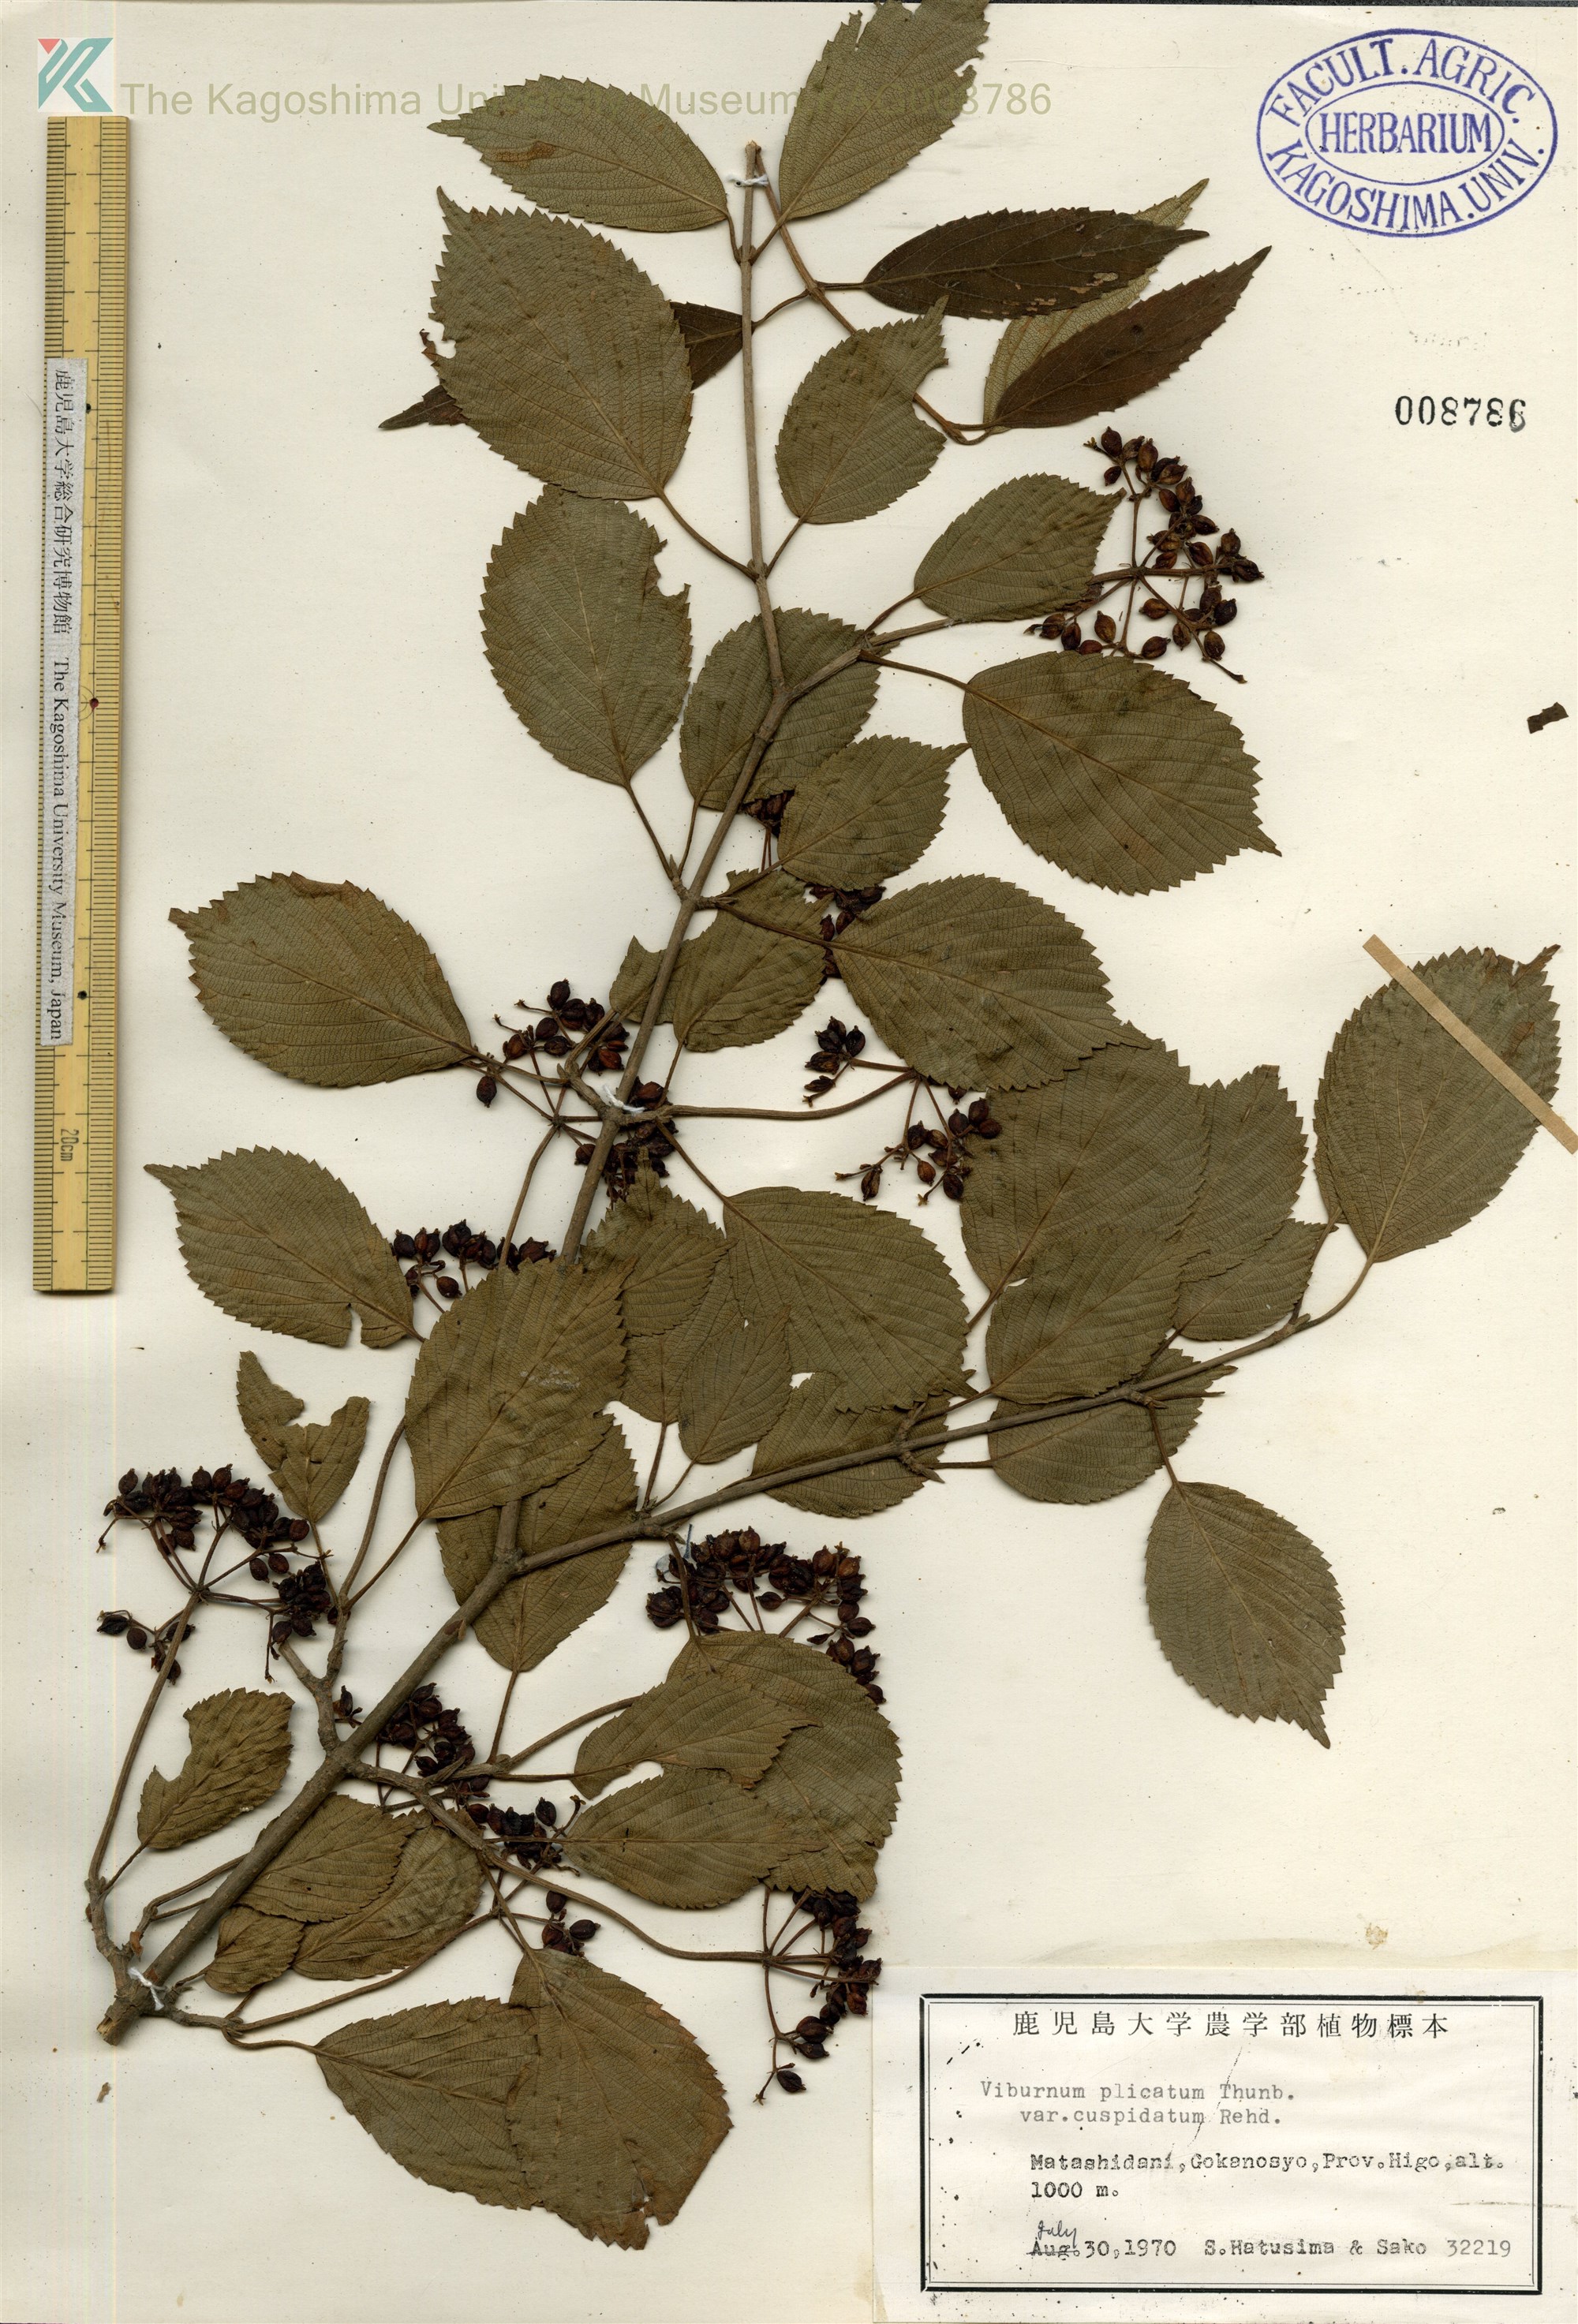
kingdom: Plantae
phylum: Tracheophyta
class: Magnoliopsida
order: Dipsacales
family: Viburnaceae
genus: Viburnum
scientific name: Viburnum plicatum
